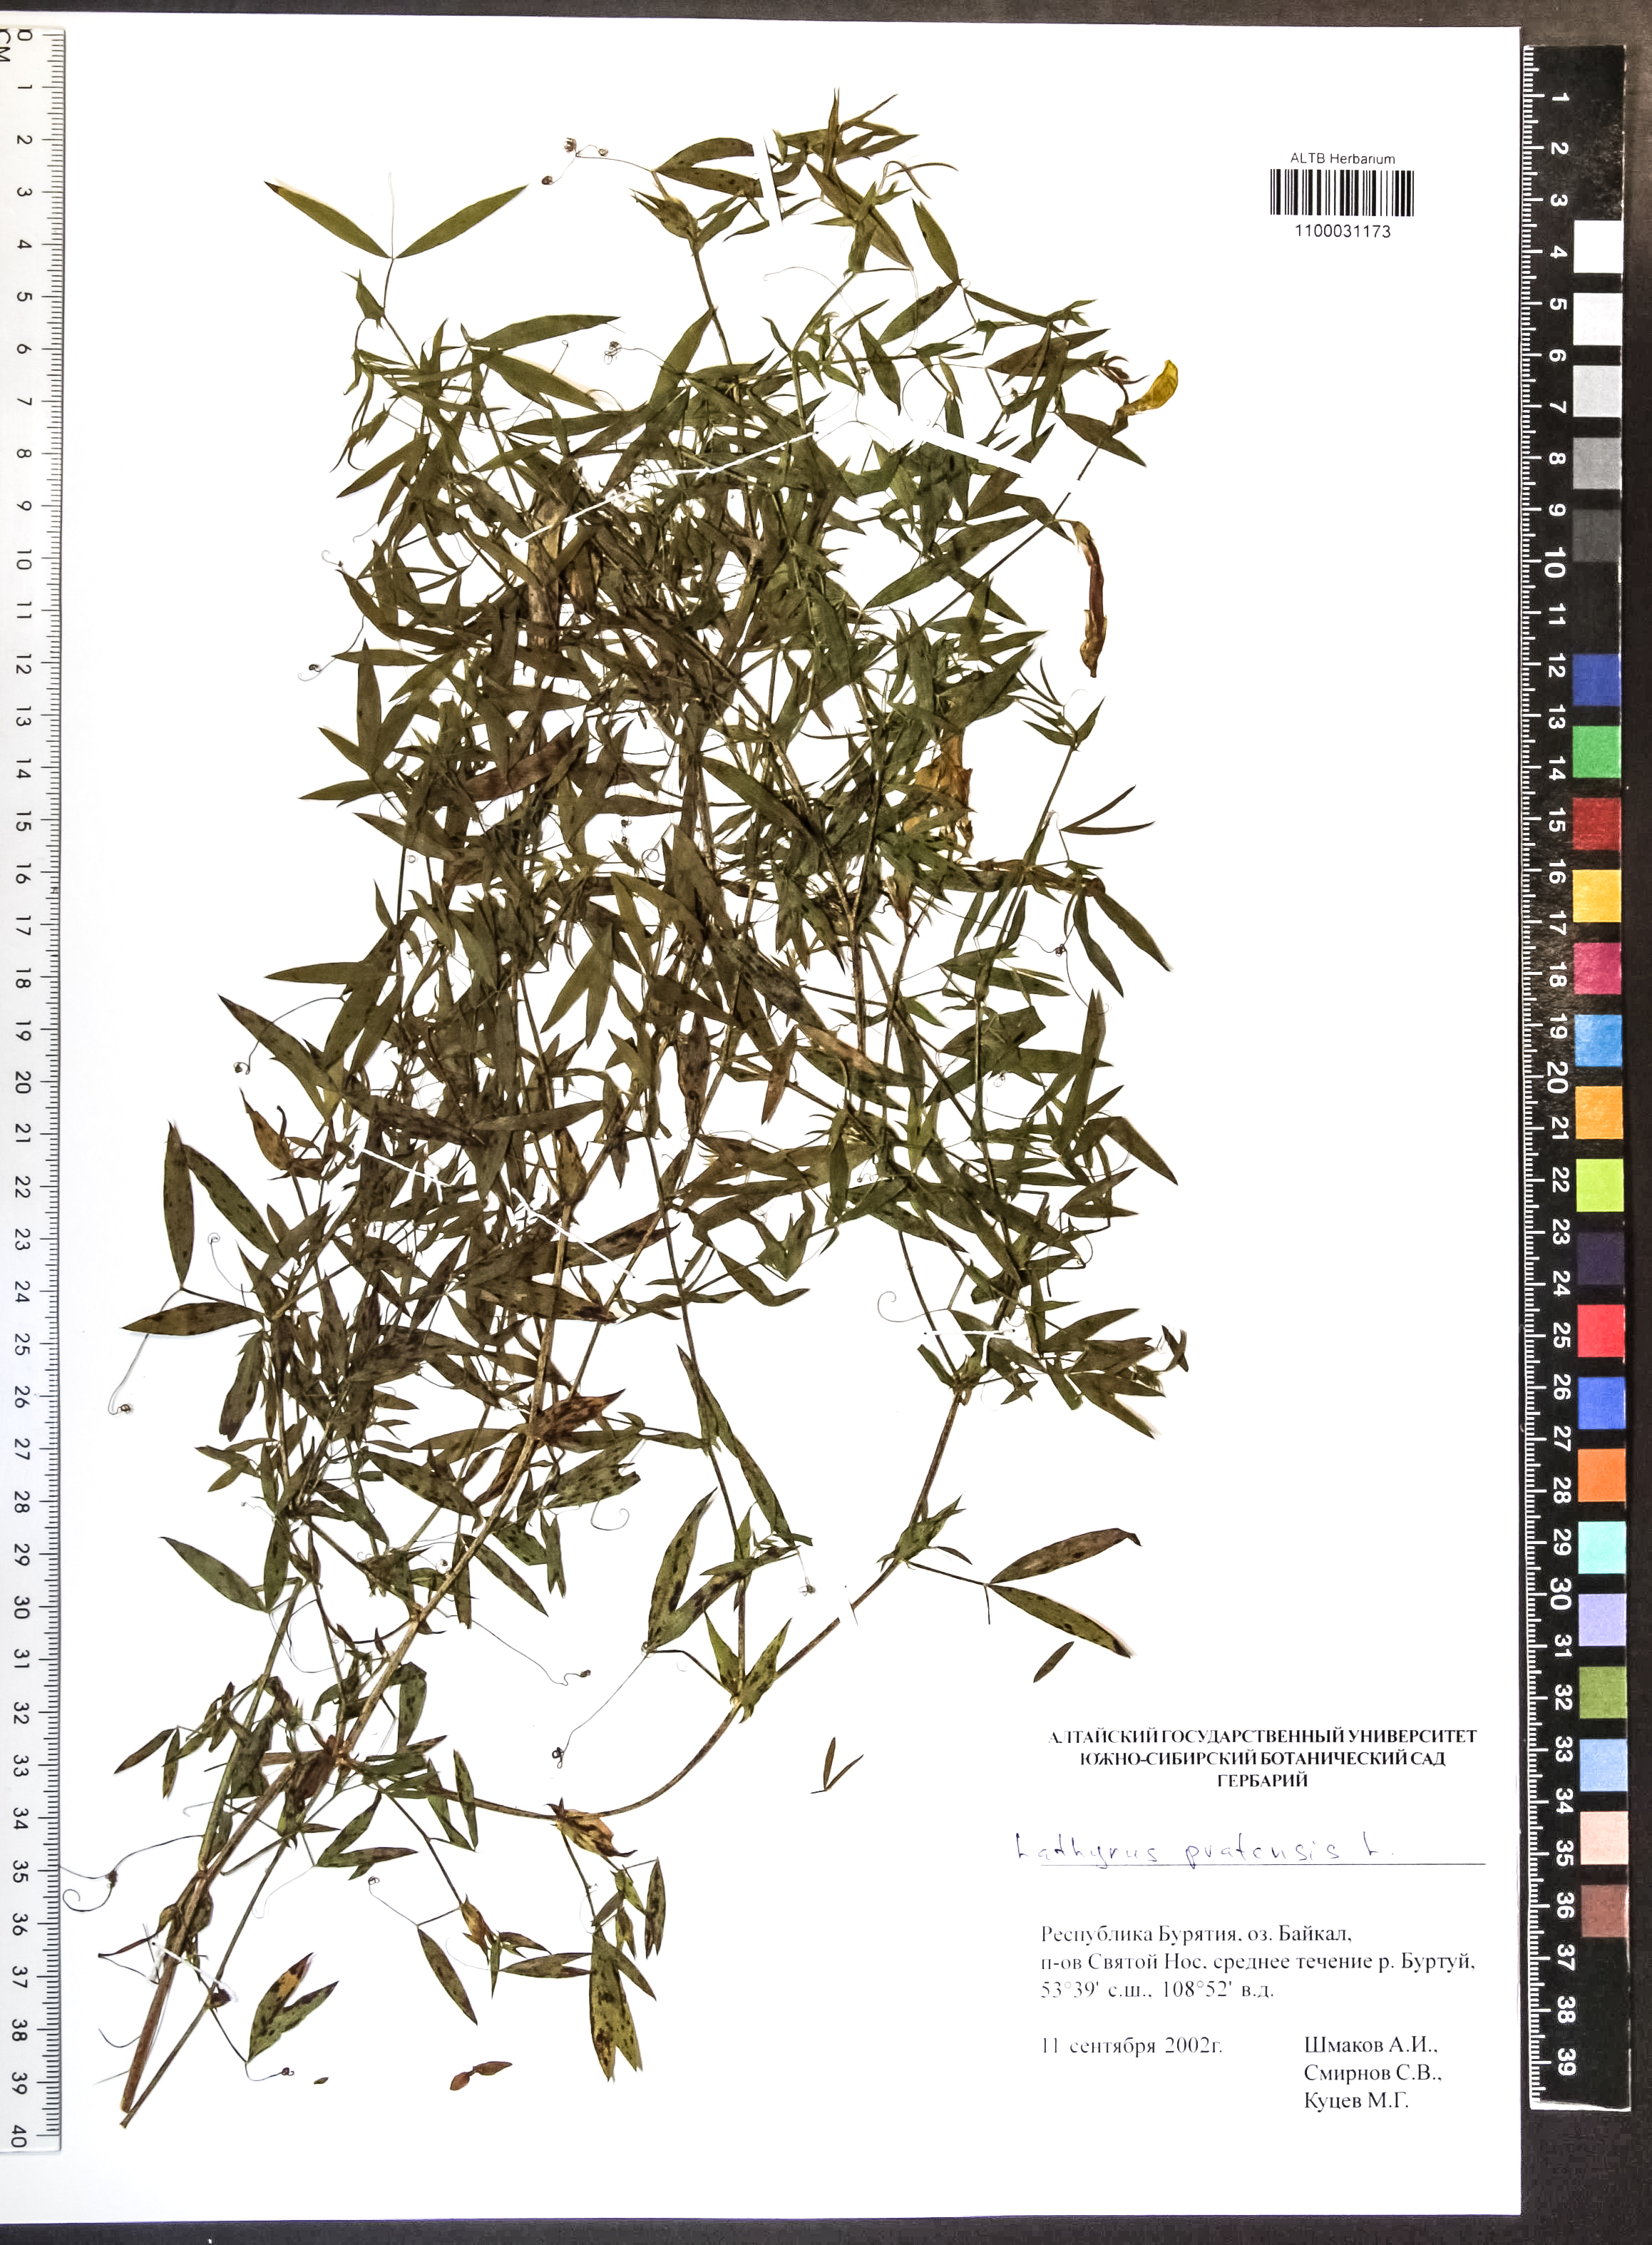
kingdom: Plantae
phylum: Tracheophyta
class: Magnoliopsida
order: Fabales
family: Fabaceae
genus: Lathyrus
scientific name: Lathyrus pratensis
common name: Meadow vetchling
